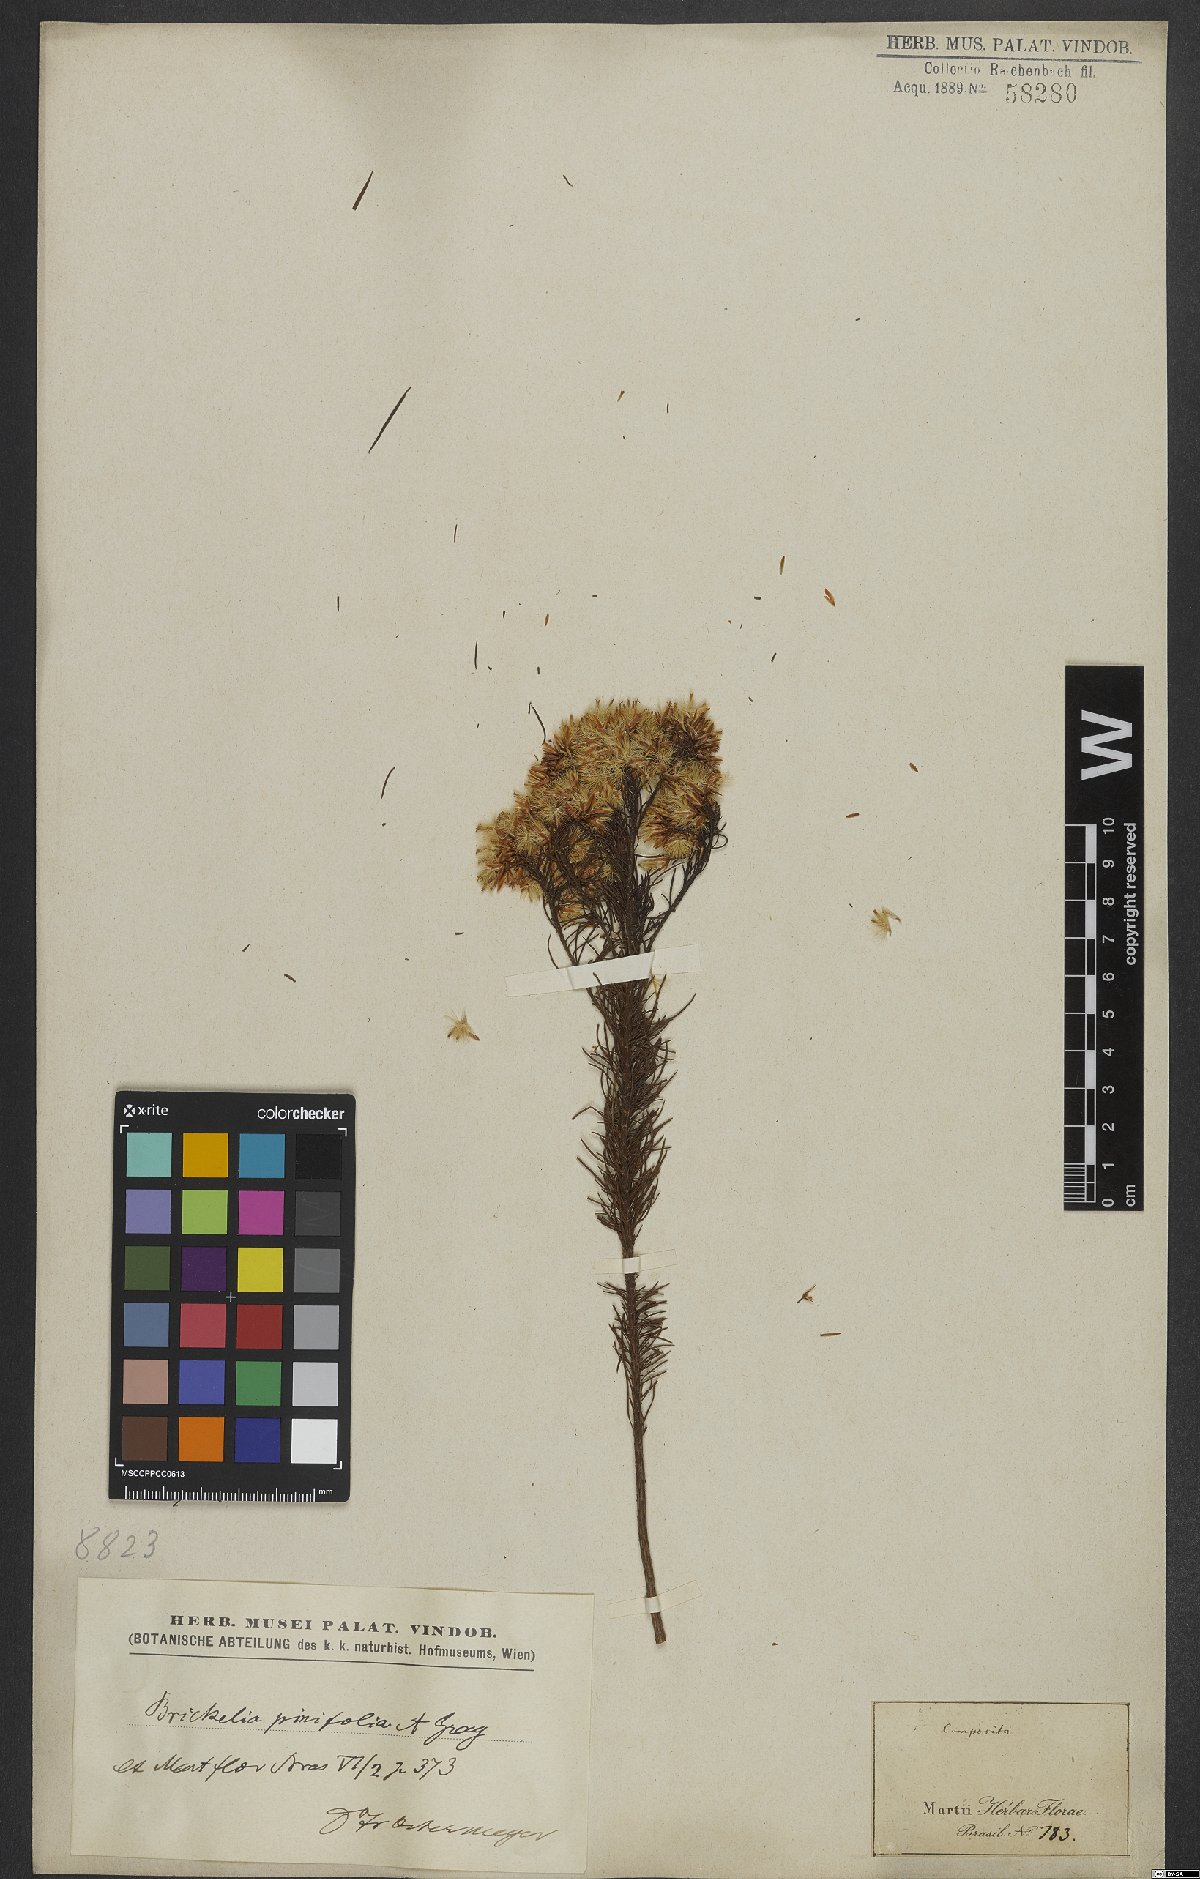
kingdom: Plantae
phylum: Tracheophyta
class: Magnoliopsida
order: Asterales
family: Asteraceae
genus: Pseudobrickellia
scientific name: Pseudobrickellia brasiliensis
